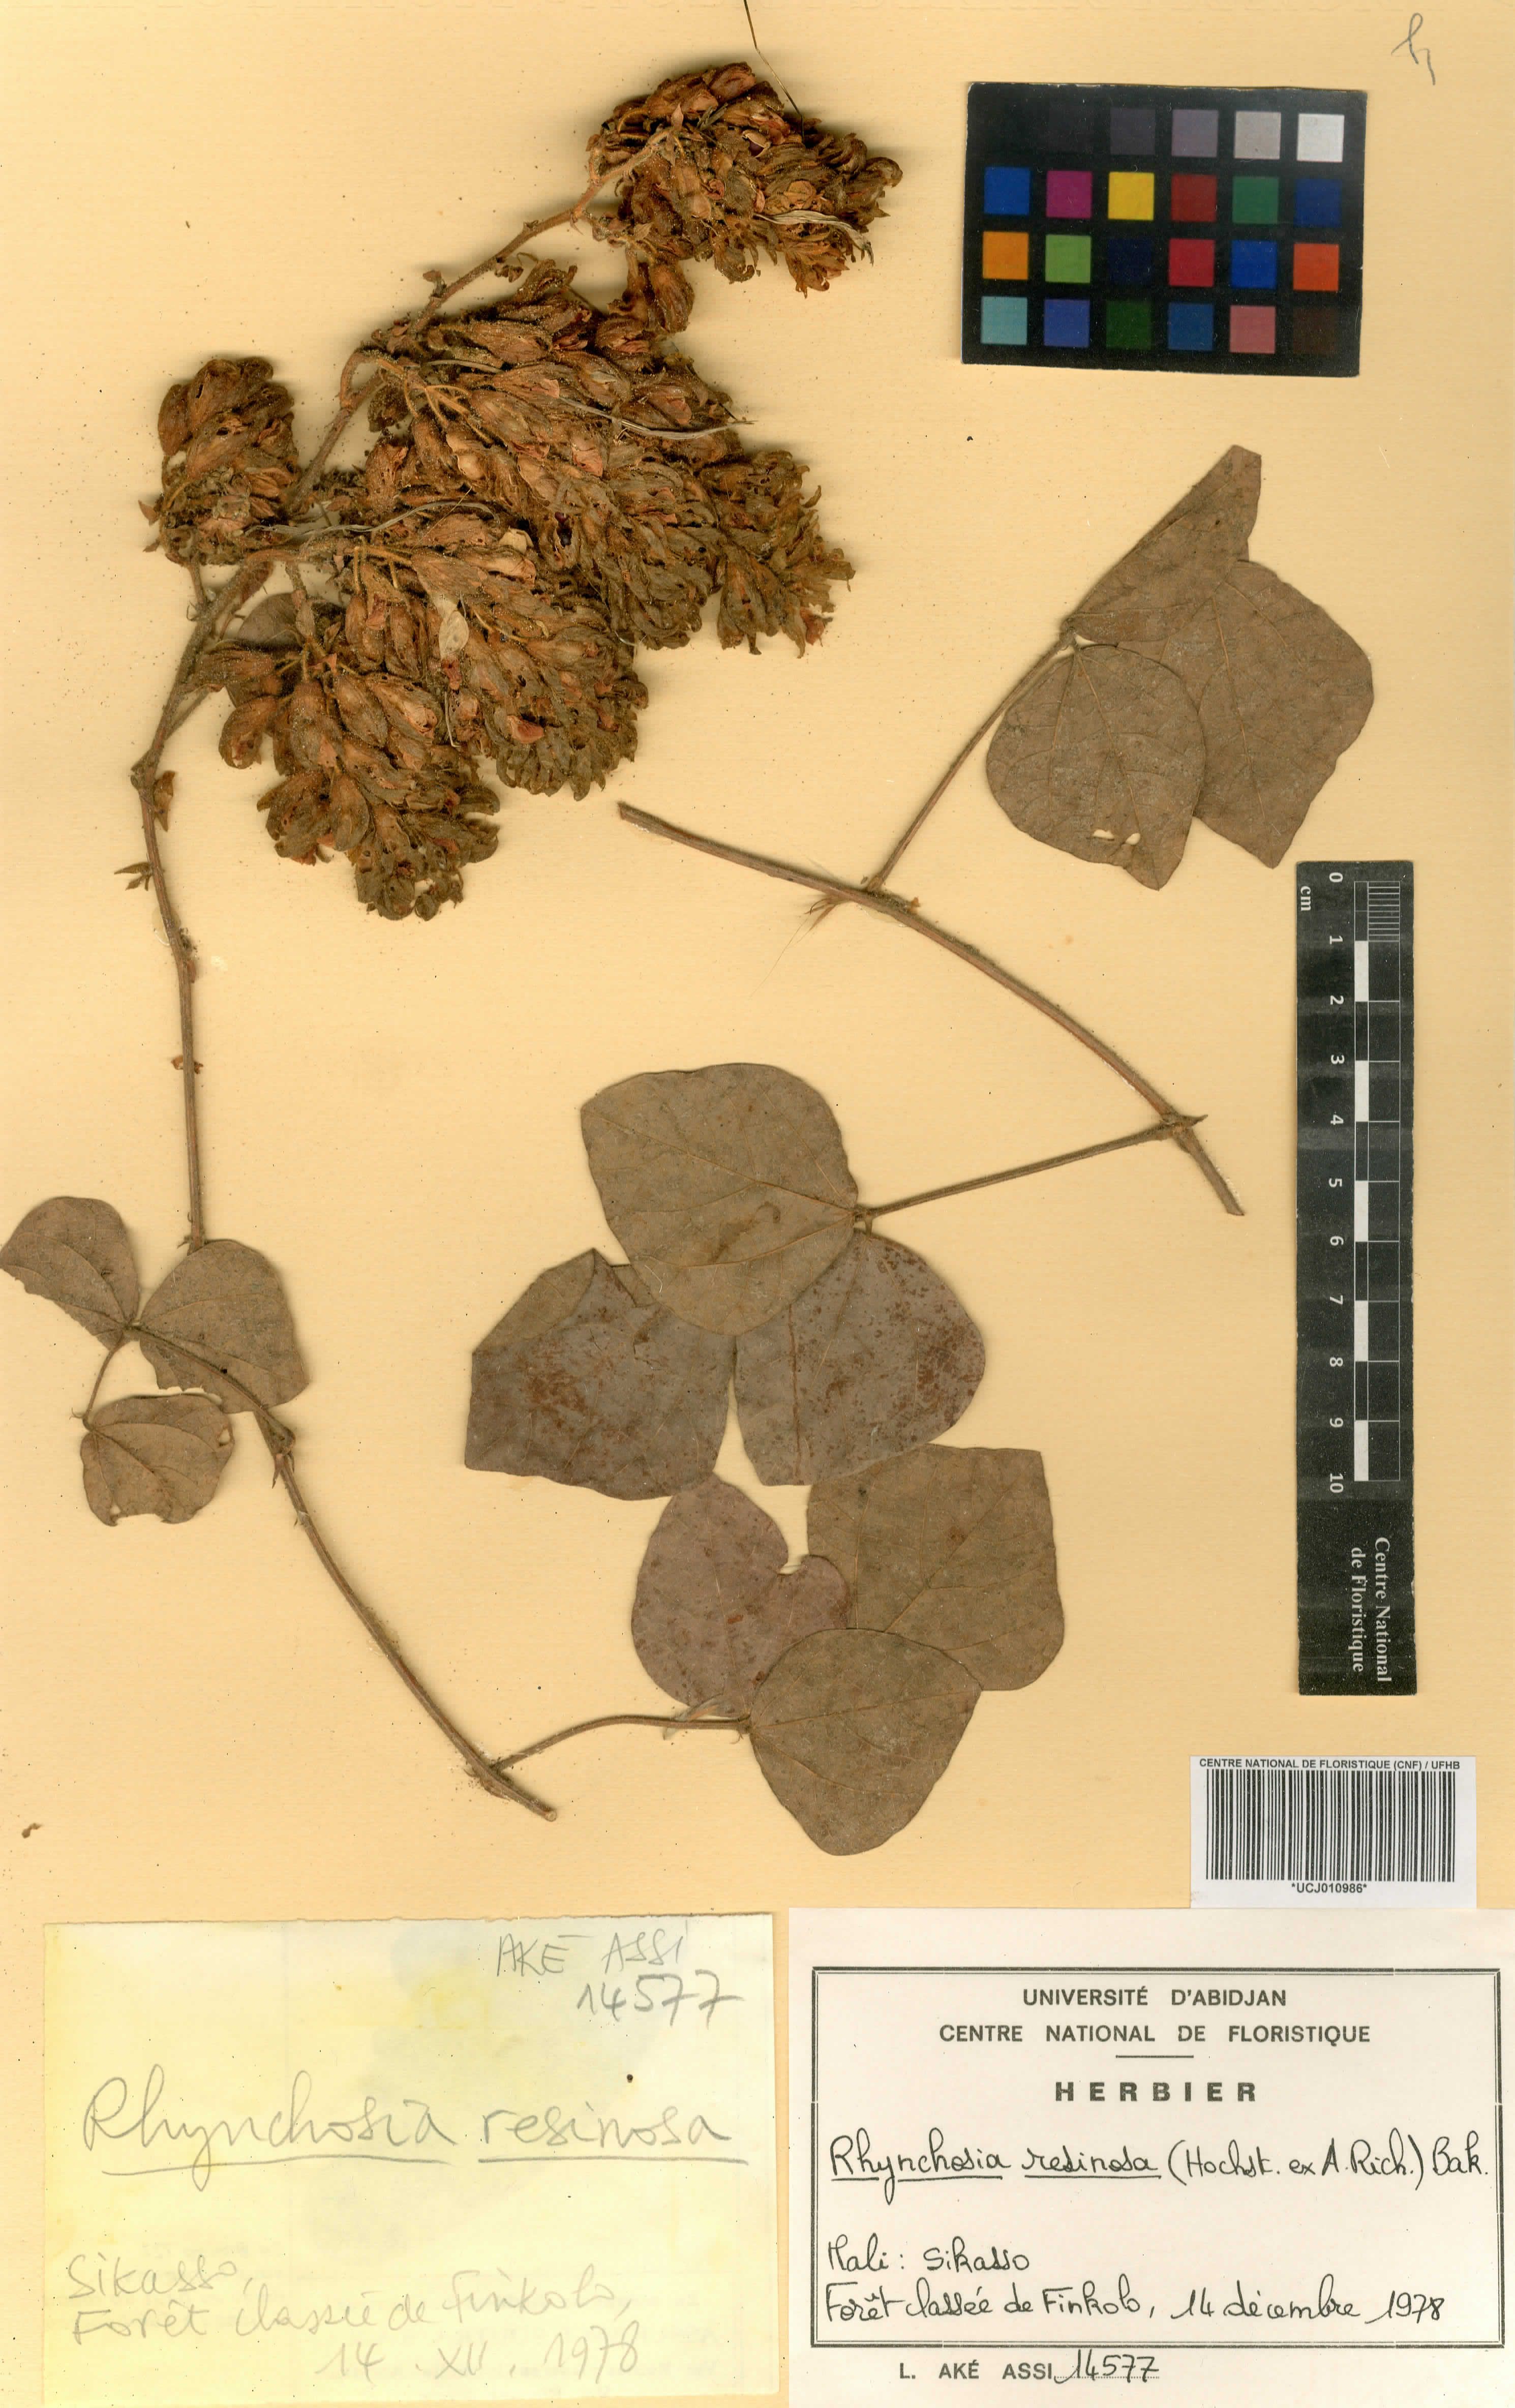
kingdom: Plantae
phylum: Tracheophyta
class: Magnoliopsida
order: Fabales
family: Fabaceae
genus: Rhynchosia
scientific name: Rhynchosia pycnostachya
